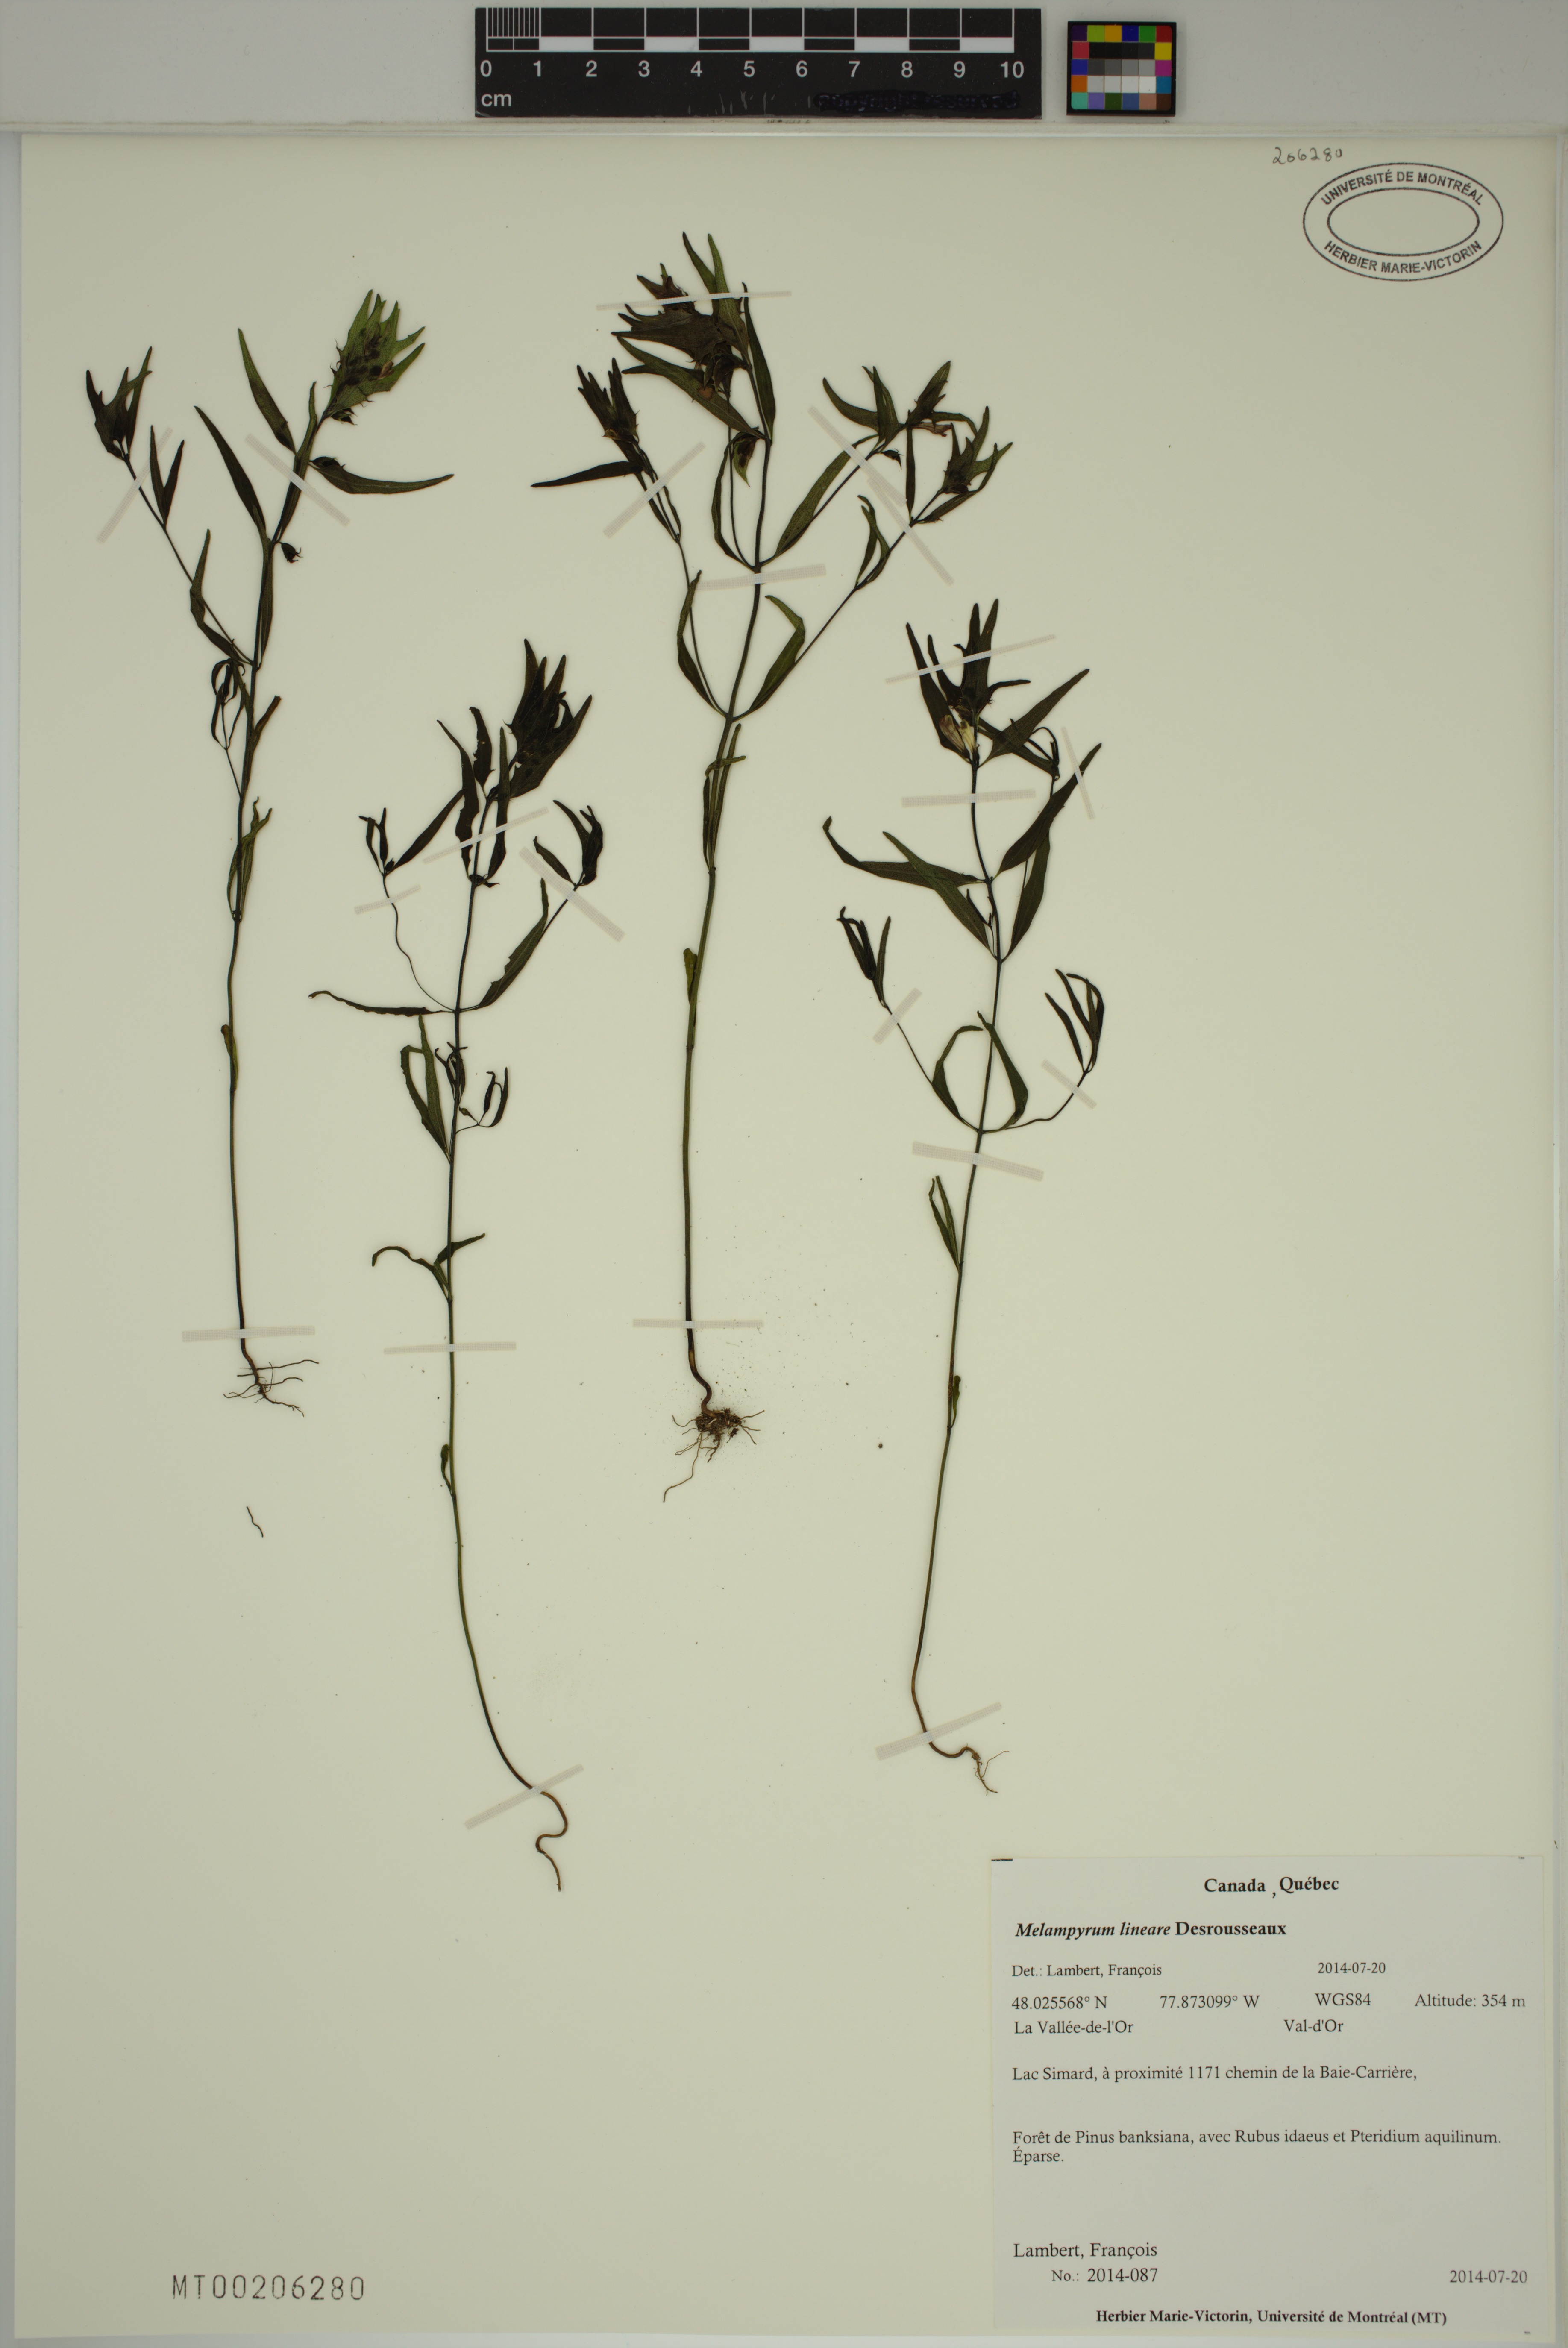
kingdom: Plantae
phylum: Tracheophyta
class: Magnoliopsida
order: Lamiales
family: Orobanchaceae
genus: Melampyrum
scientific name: Melampyrum lineare
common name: American cow-wheat
